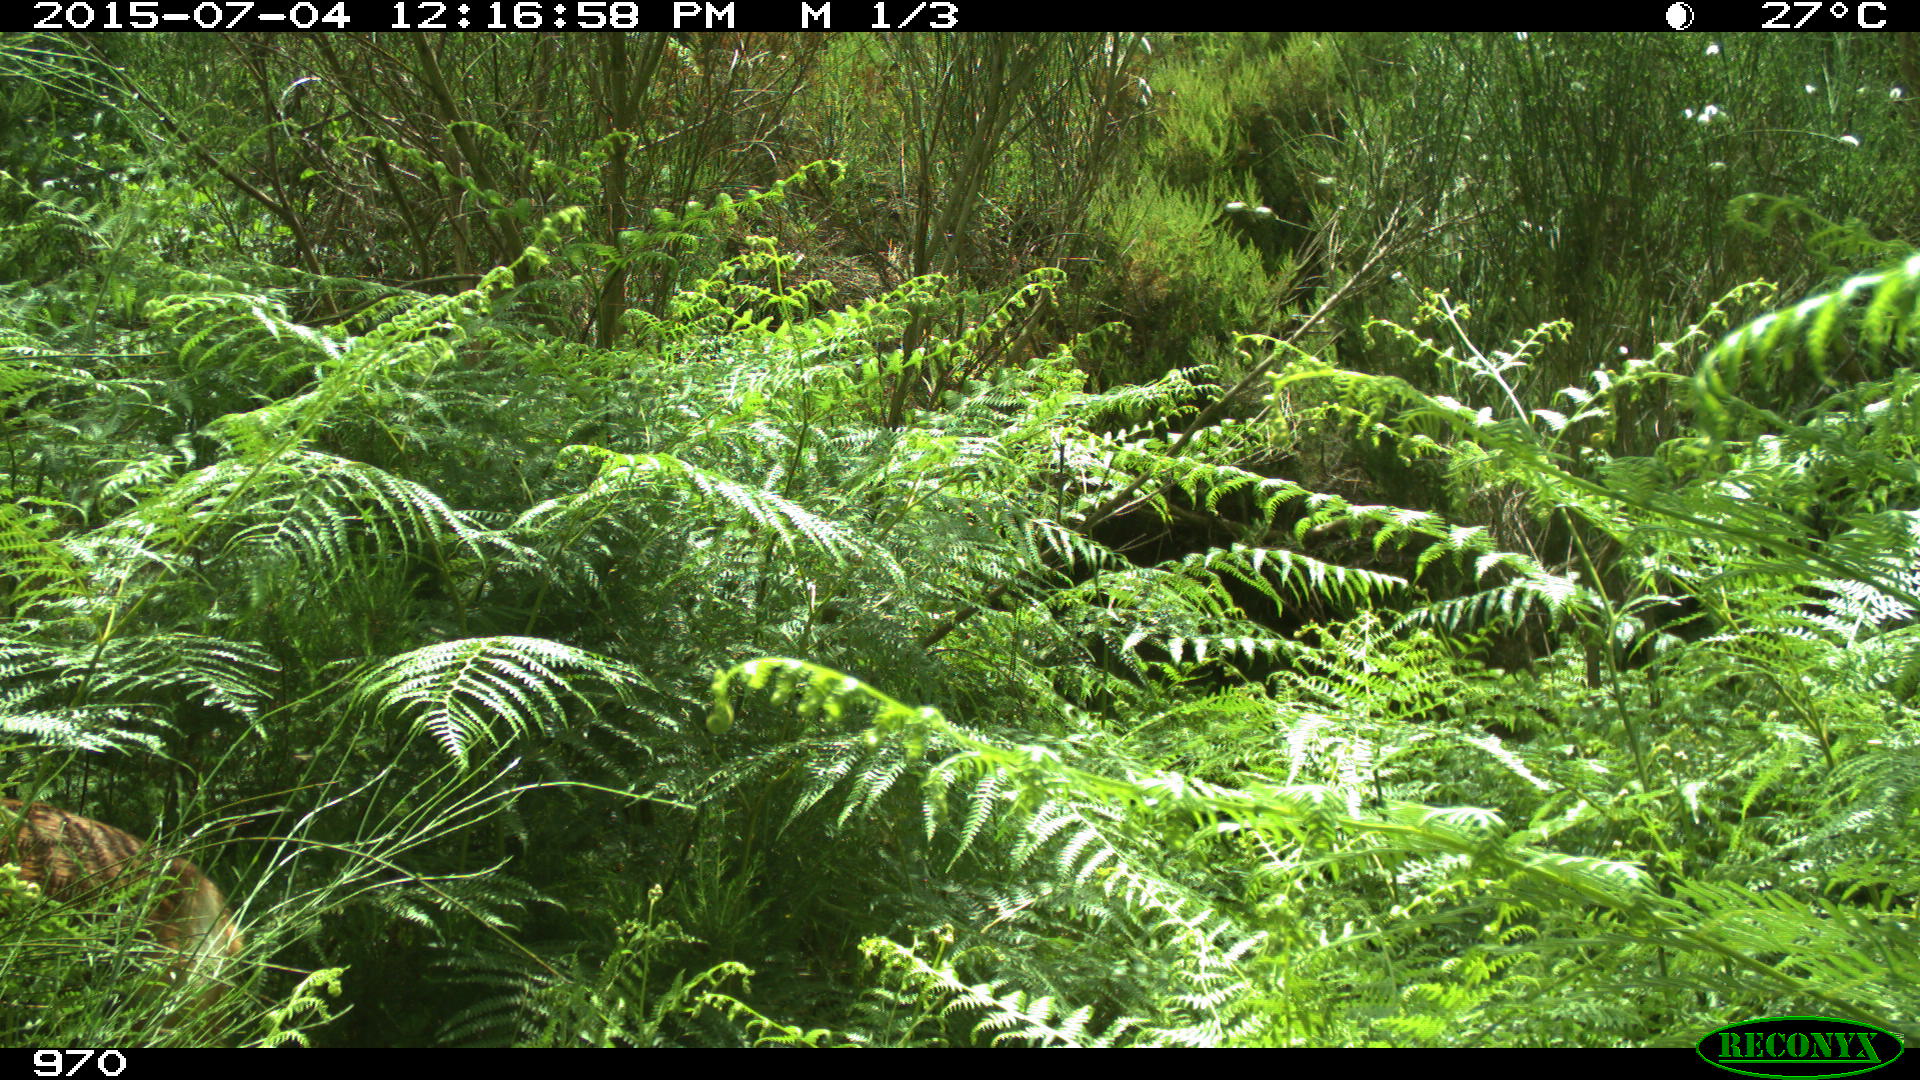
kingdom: Animalia
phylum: Chordata
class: Mammalia
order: Artiodactyla
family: Cervidae
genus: Capreolus
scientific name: Capreolus capreolus
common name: Western roe deer
